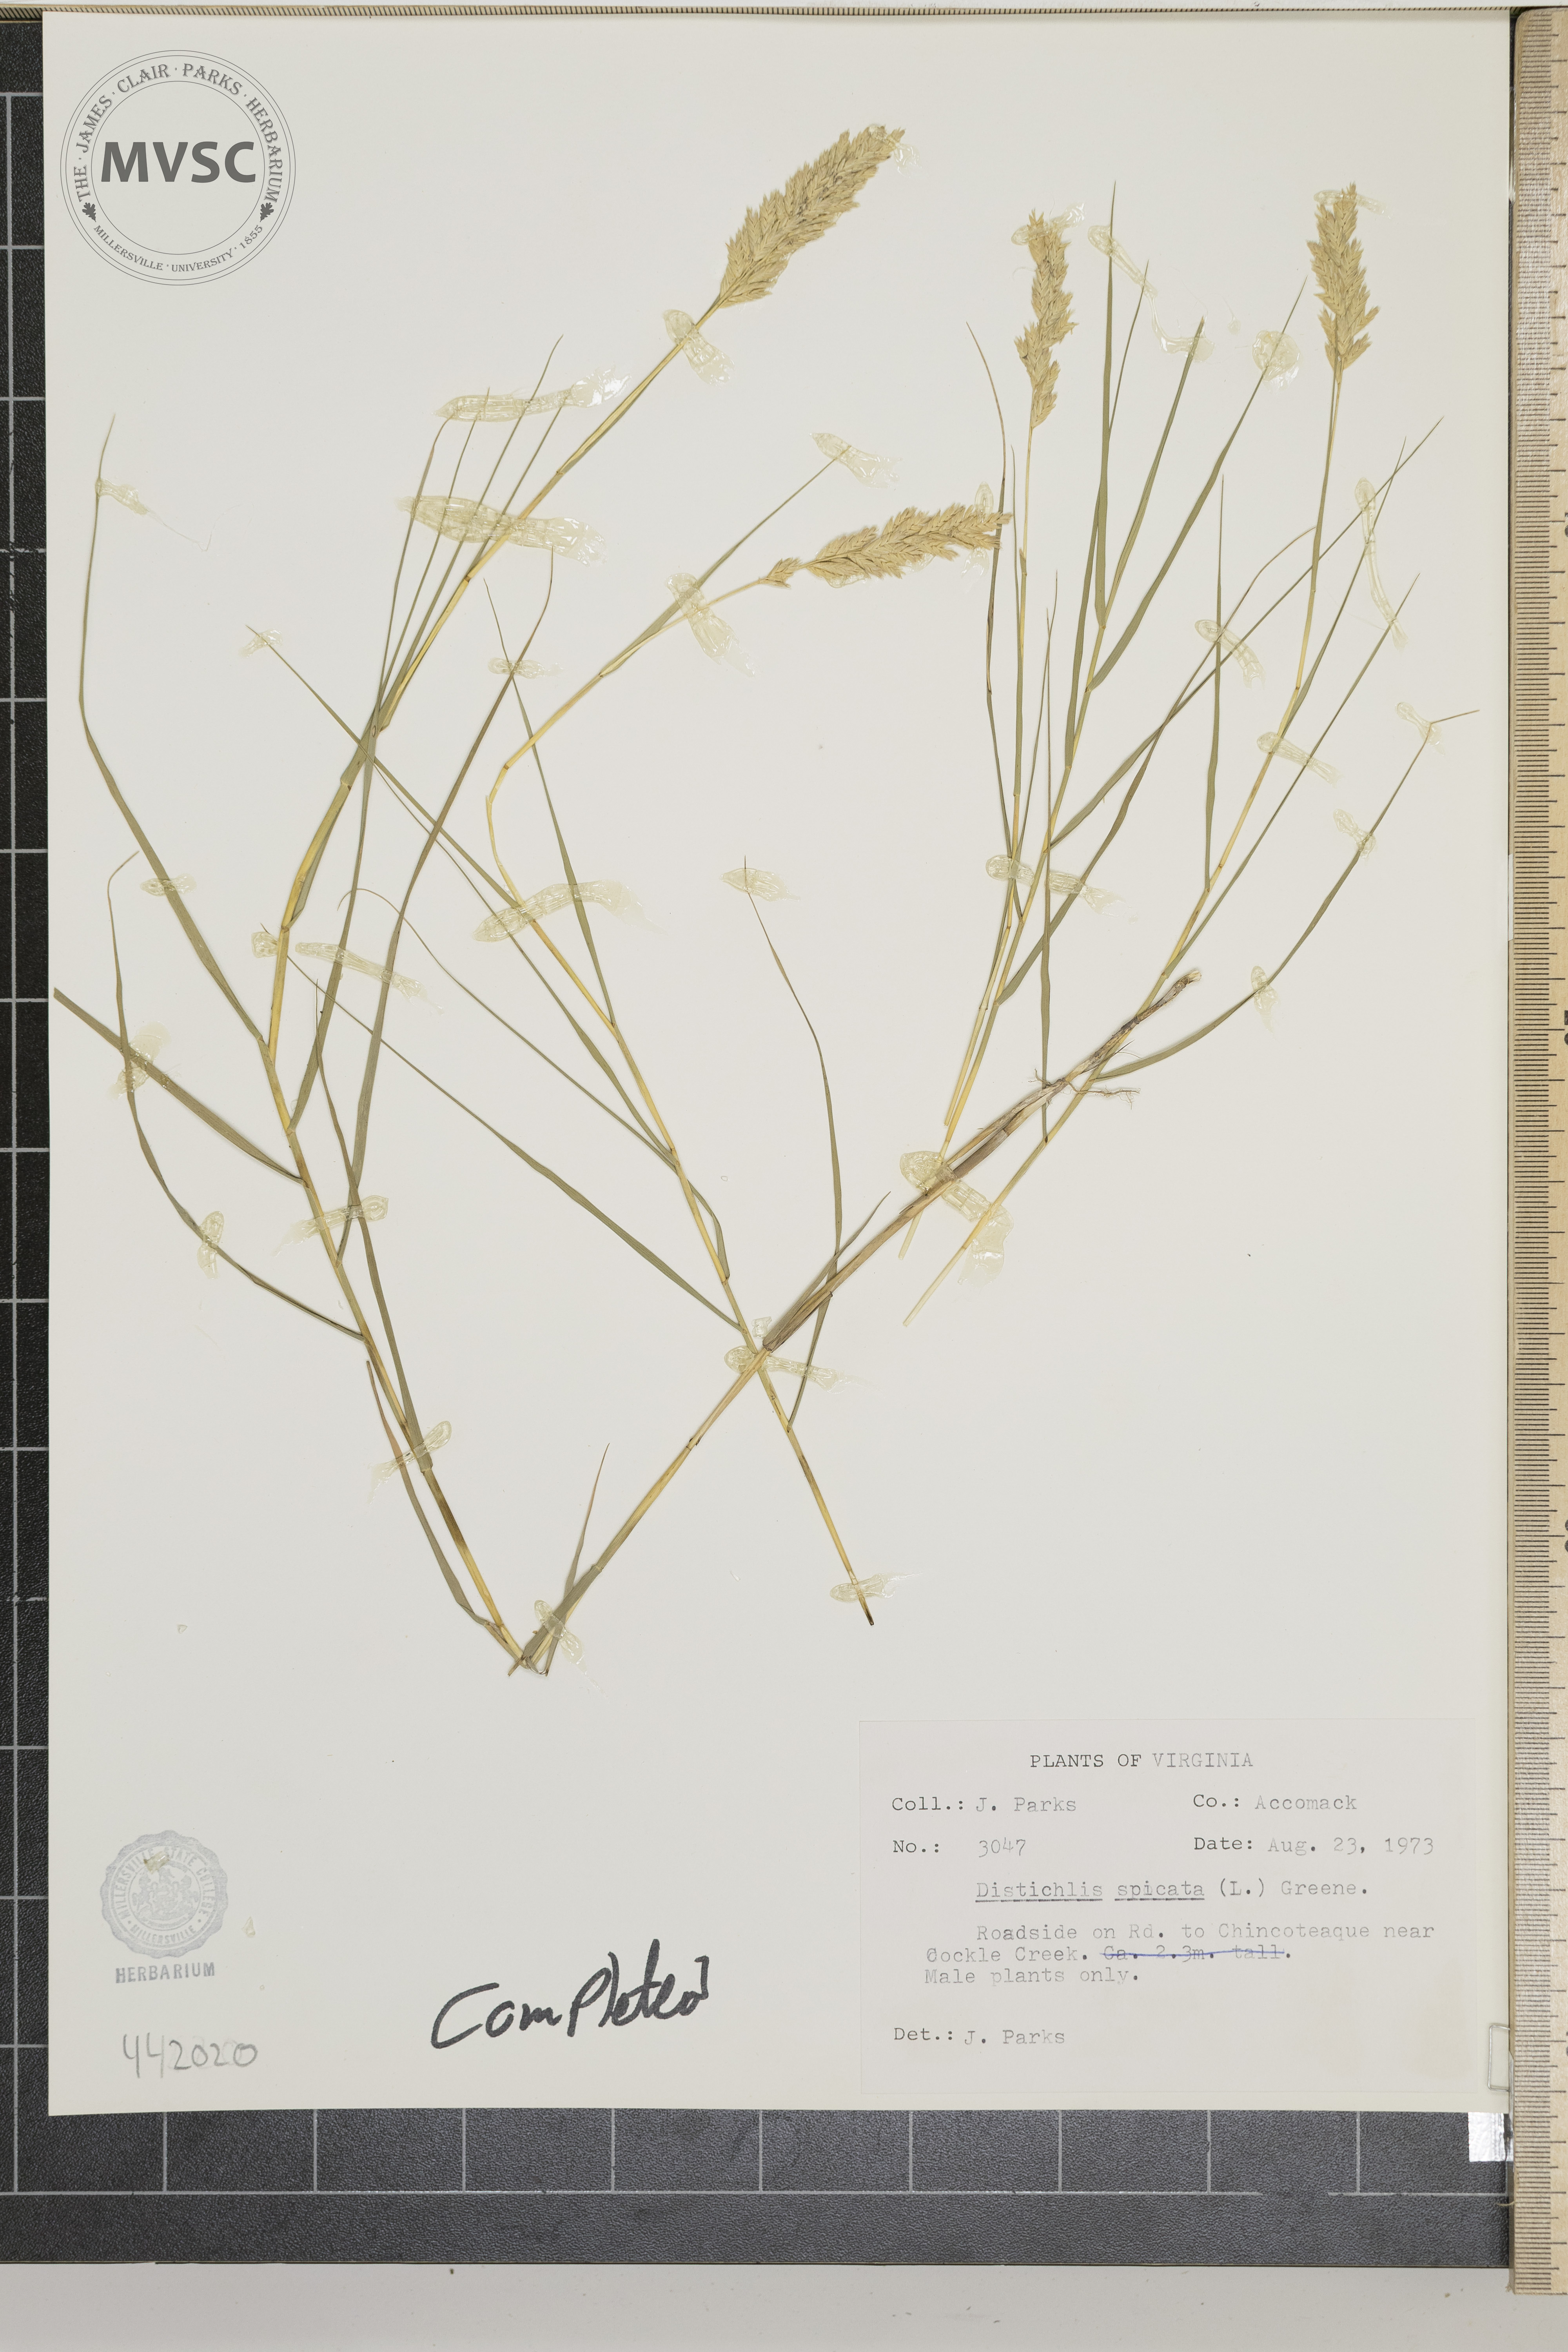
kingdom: Plantae
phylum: Tracheophyta
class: Liliopsida
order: Poales
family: Poaceae
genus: Distichlis
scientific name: Distichlis spicata
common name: Saltgrass
